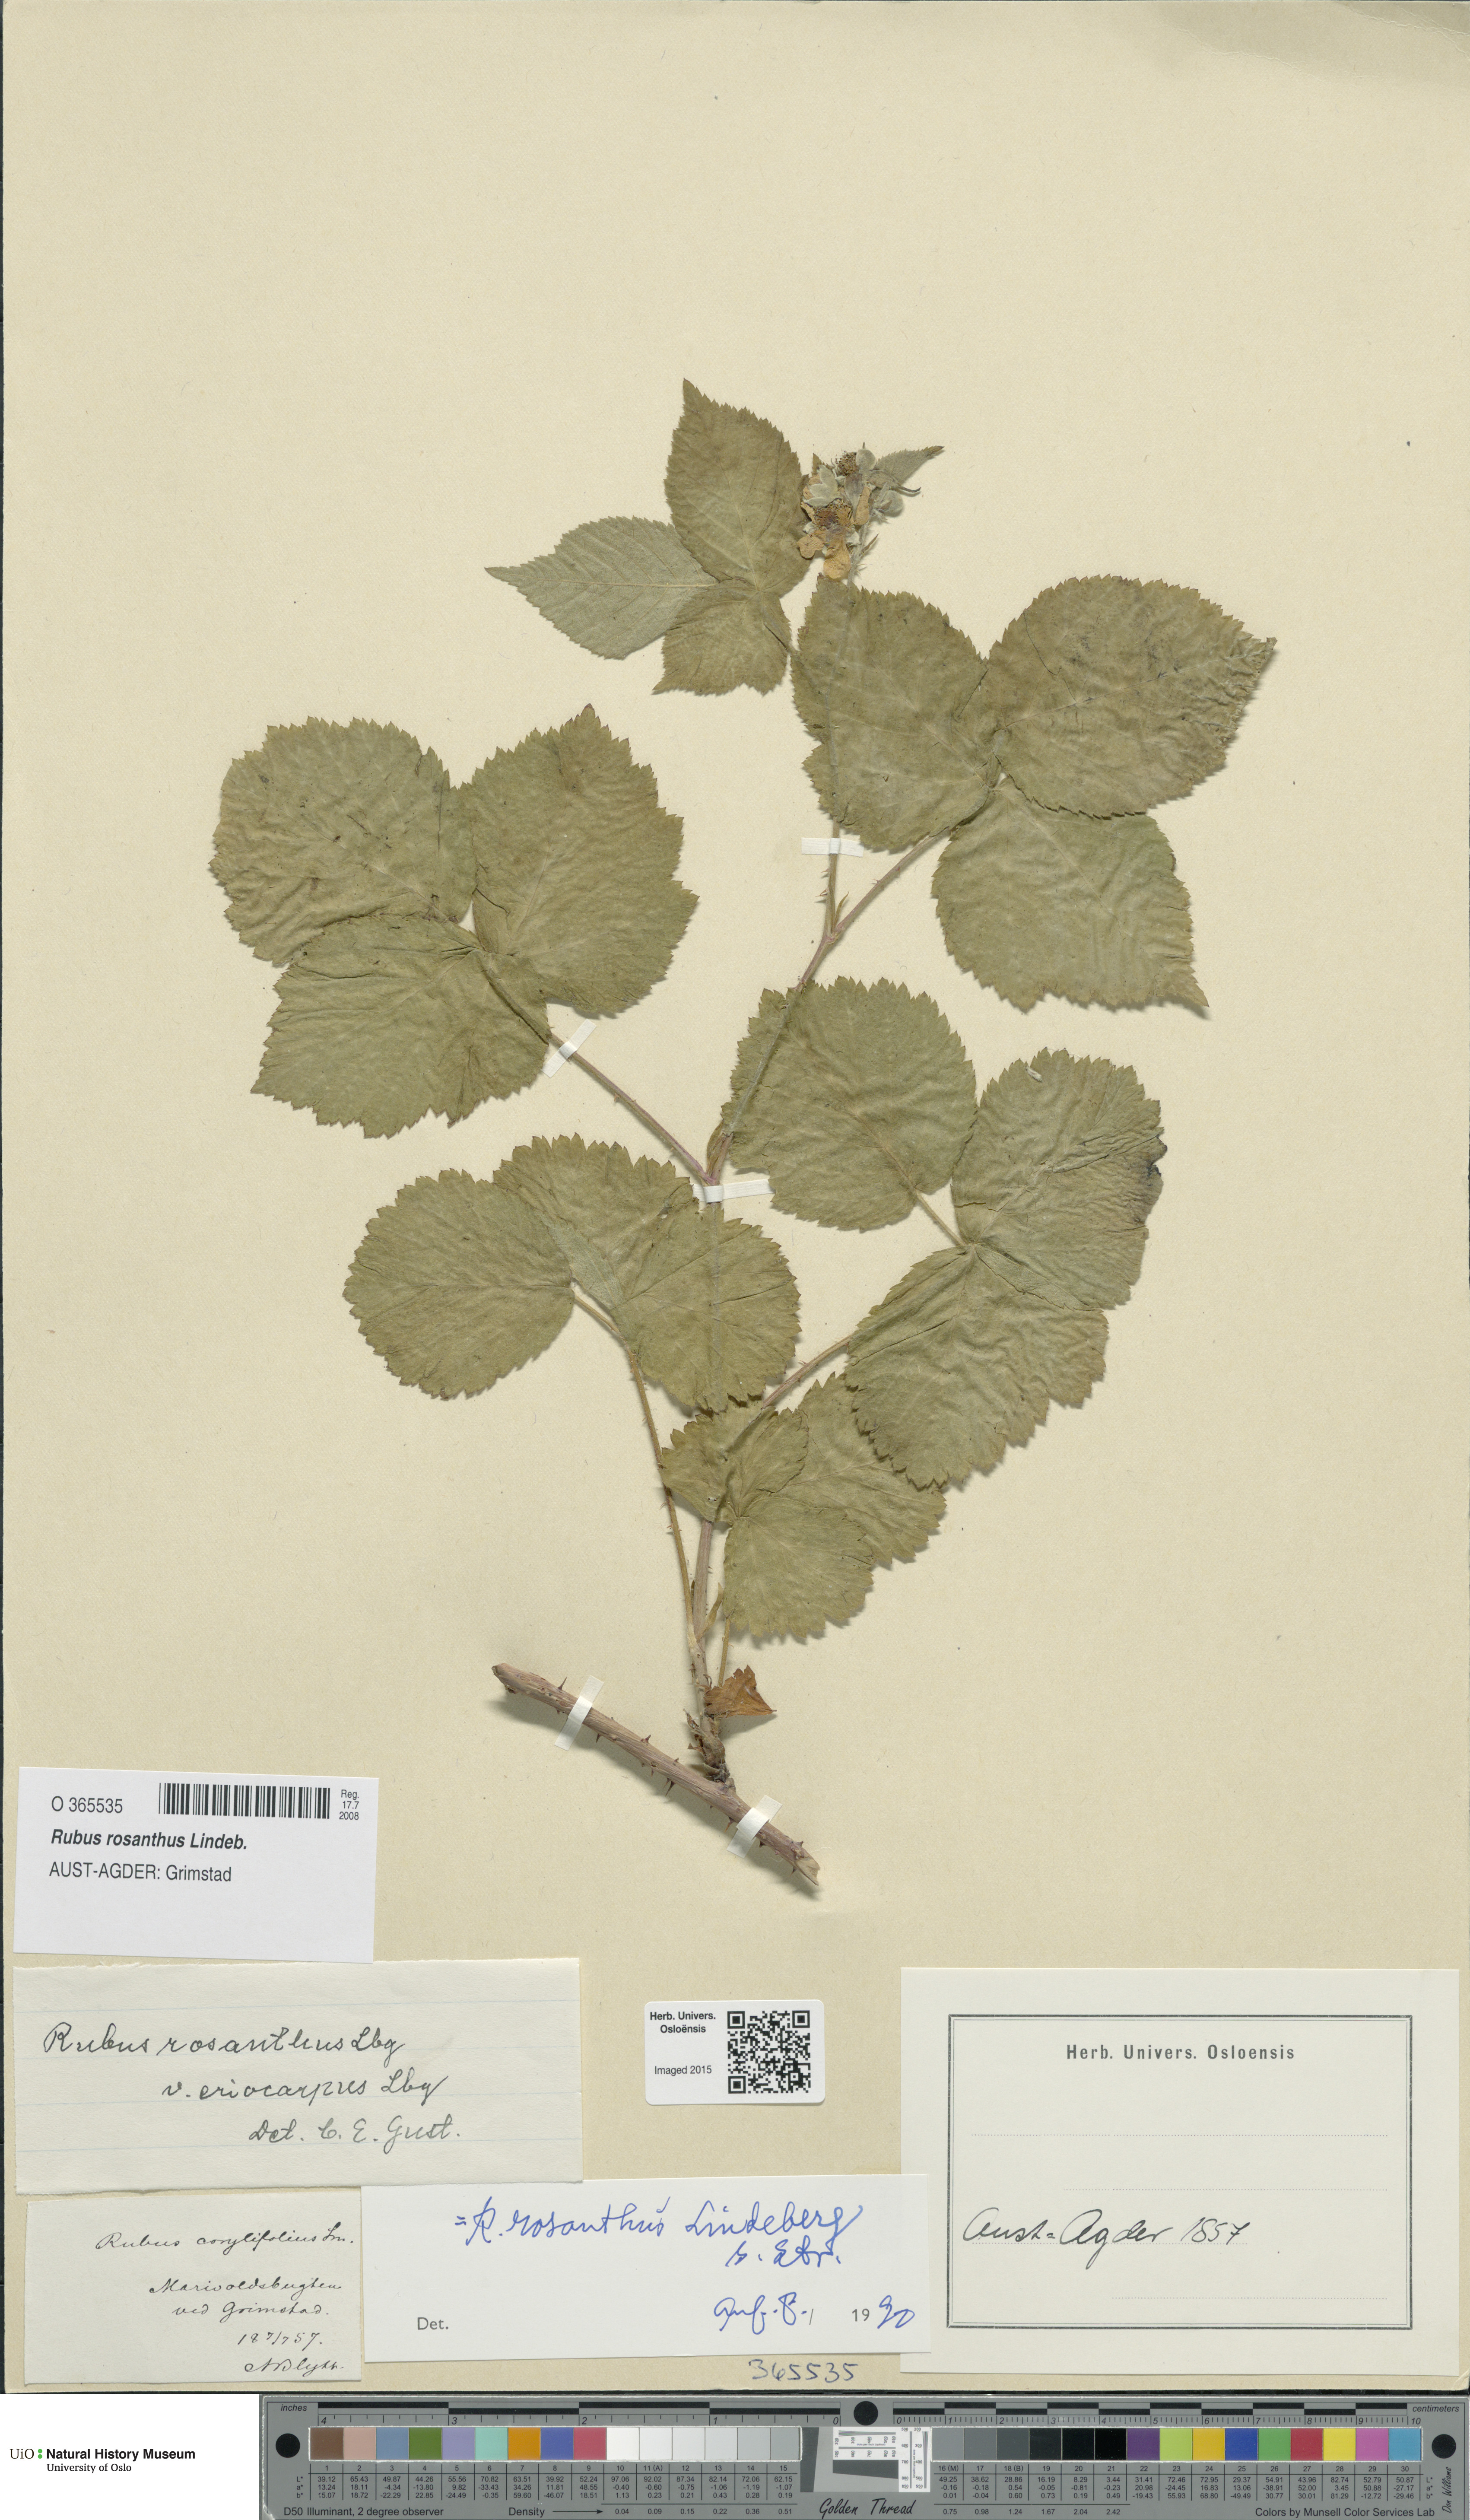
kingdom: Plantae
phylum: Tracheophyta
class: Magnoliopsida
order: Rosales
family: Rosaceae
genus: Rubus
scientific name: Rubus rosanthus
